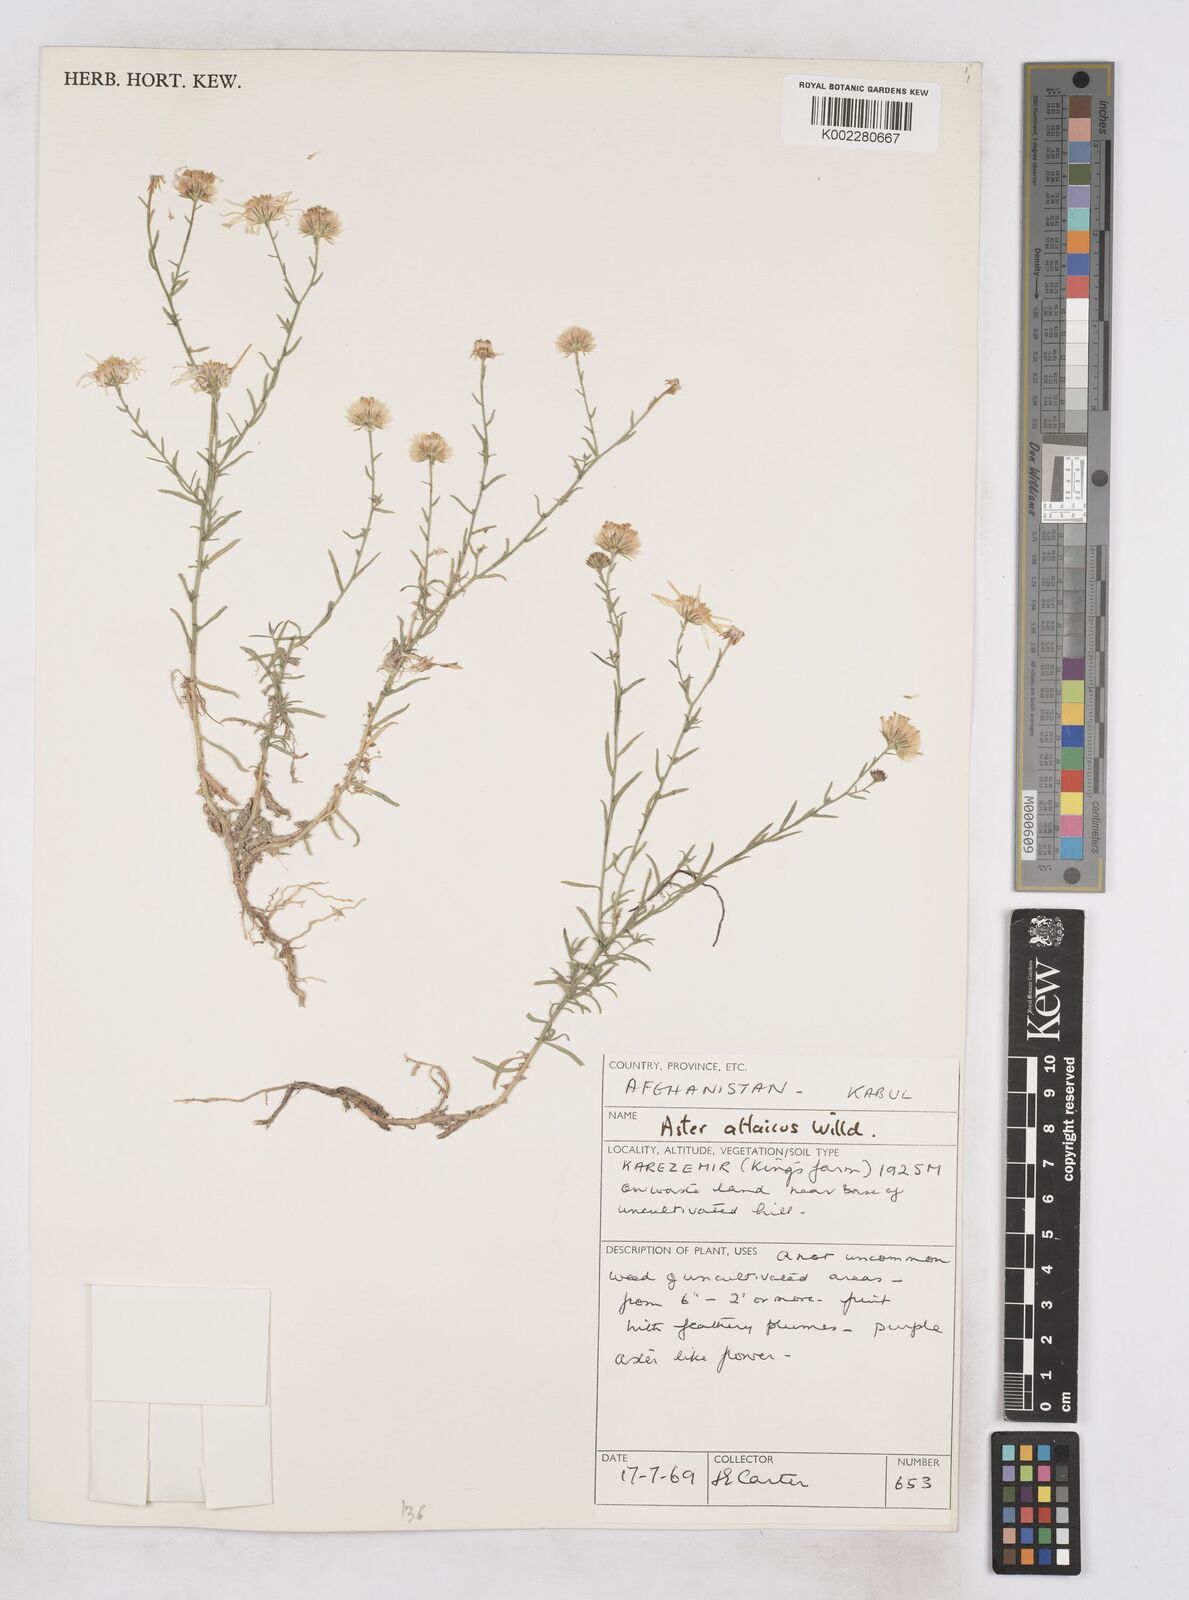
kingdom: Plantae
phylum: Tracheophyta
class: Magnoliopsida
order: Asterales
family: Asteraceae
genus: Heteropappus
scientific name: Heteropappus altaicus
